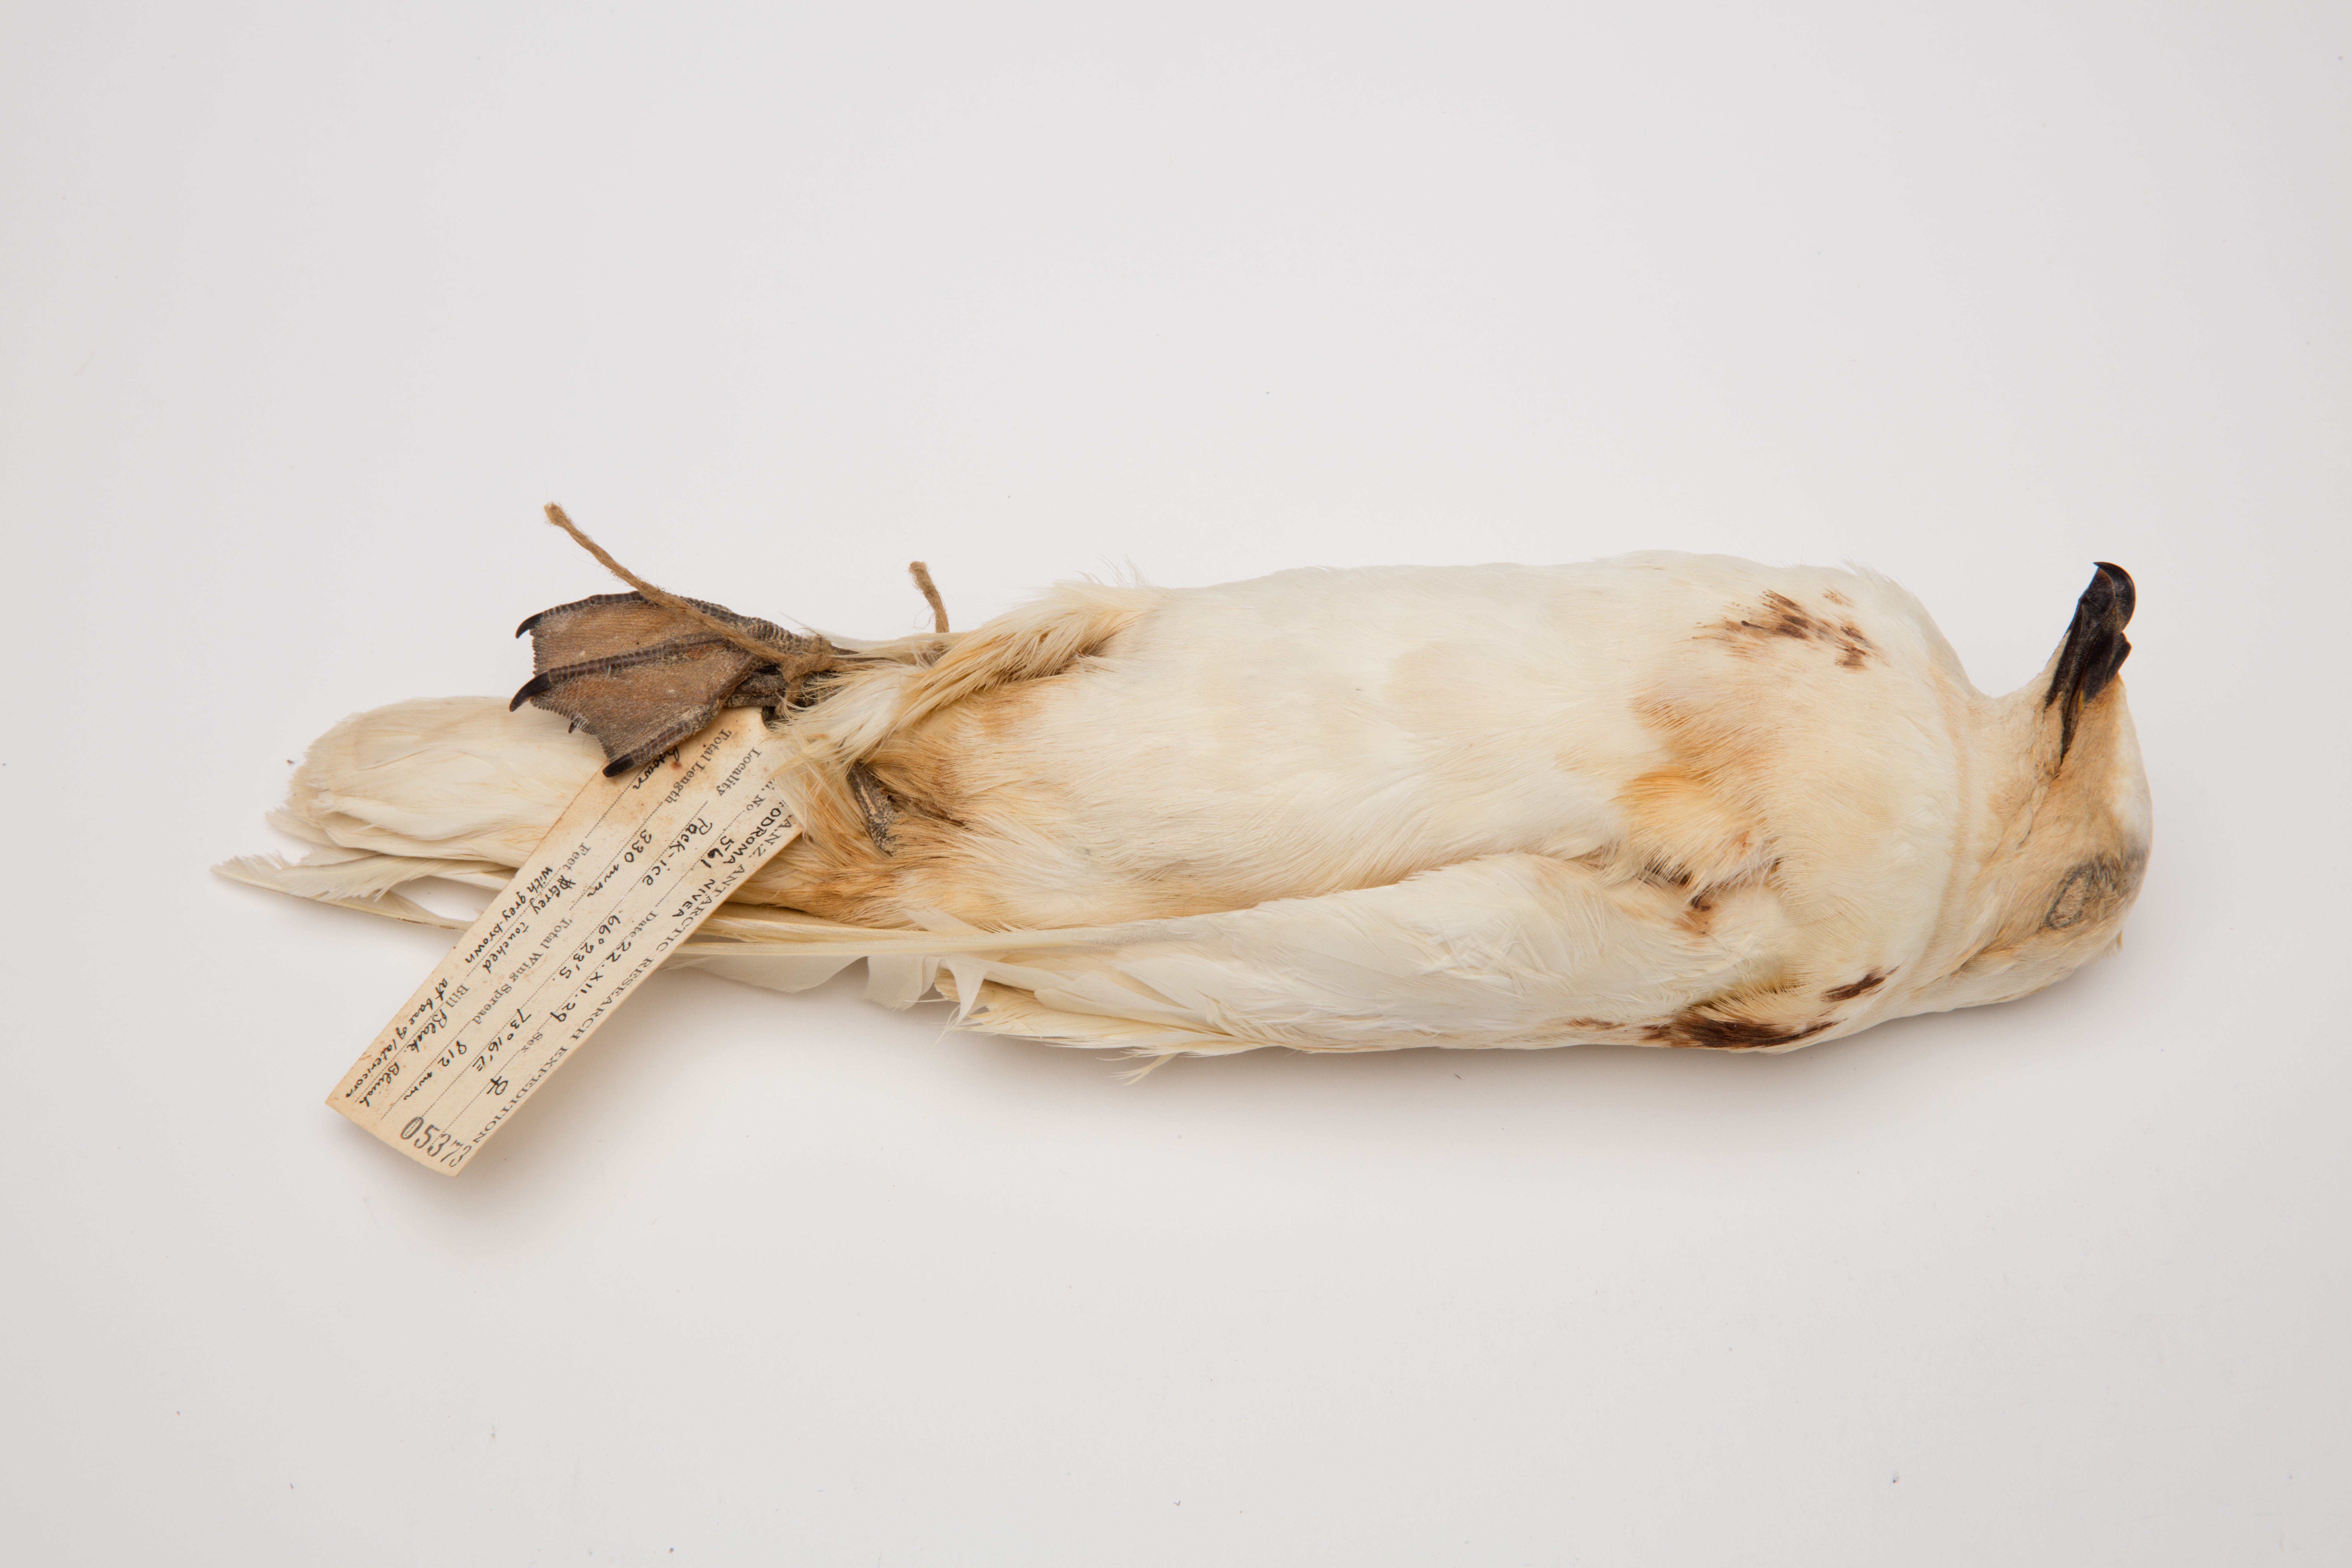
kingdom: Animalia
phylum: Chordata
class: Aves
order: Procellariiformes
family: Procellariidae
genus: Pagodroma
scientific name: Pagodroma nivea
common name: Snow petrel
